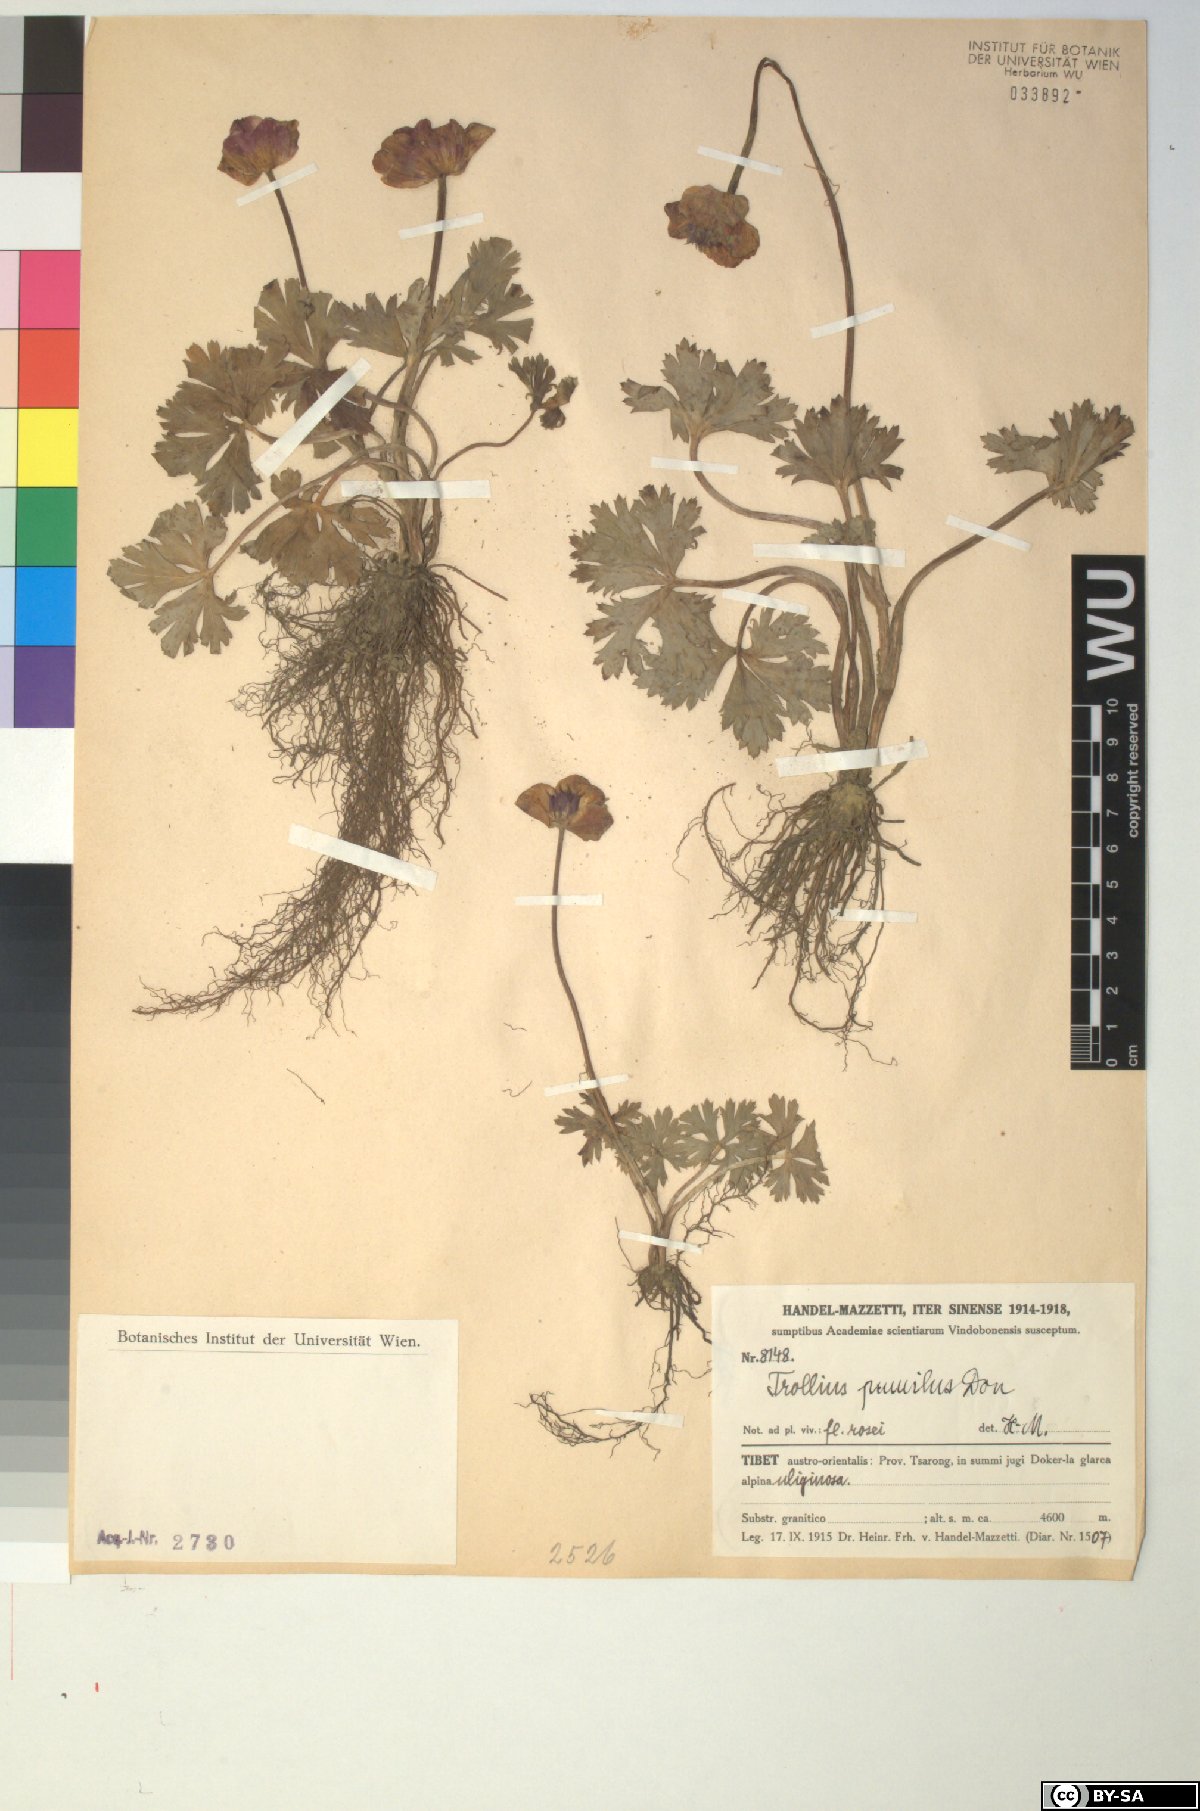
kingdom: Plantae
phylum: Tracheophyta
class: Magnoliopsida
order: Ranunculales
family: Ranunculaceae
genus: Trollius
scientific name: Trollius pumilus
